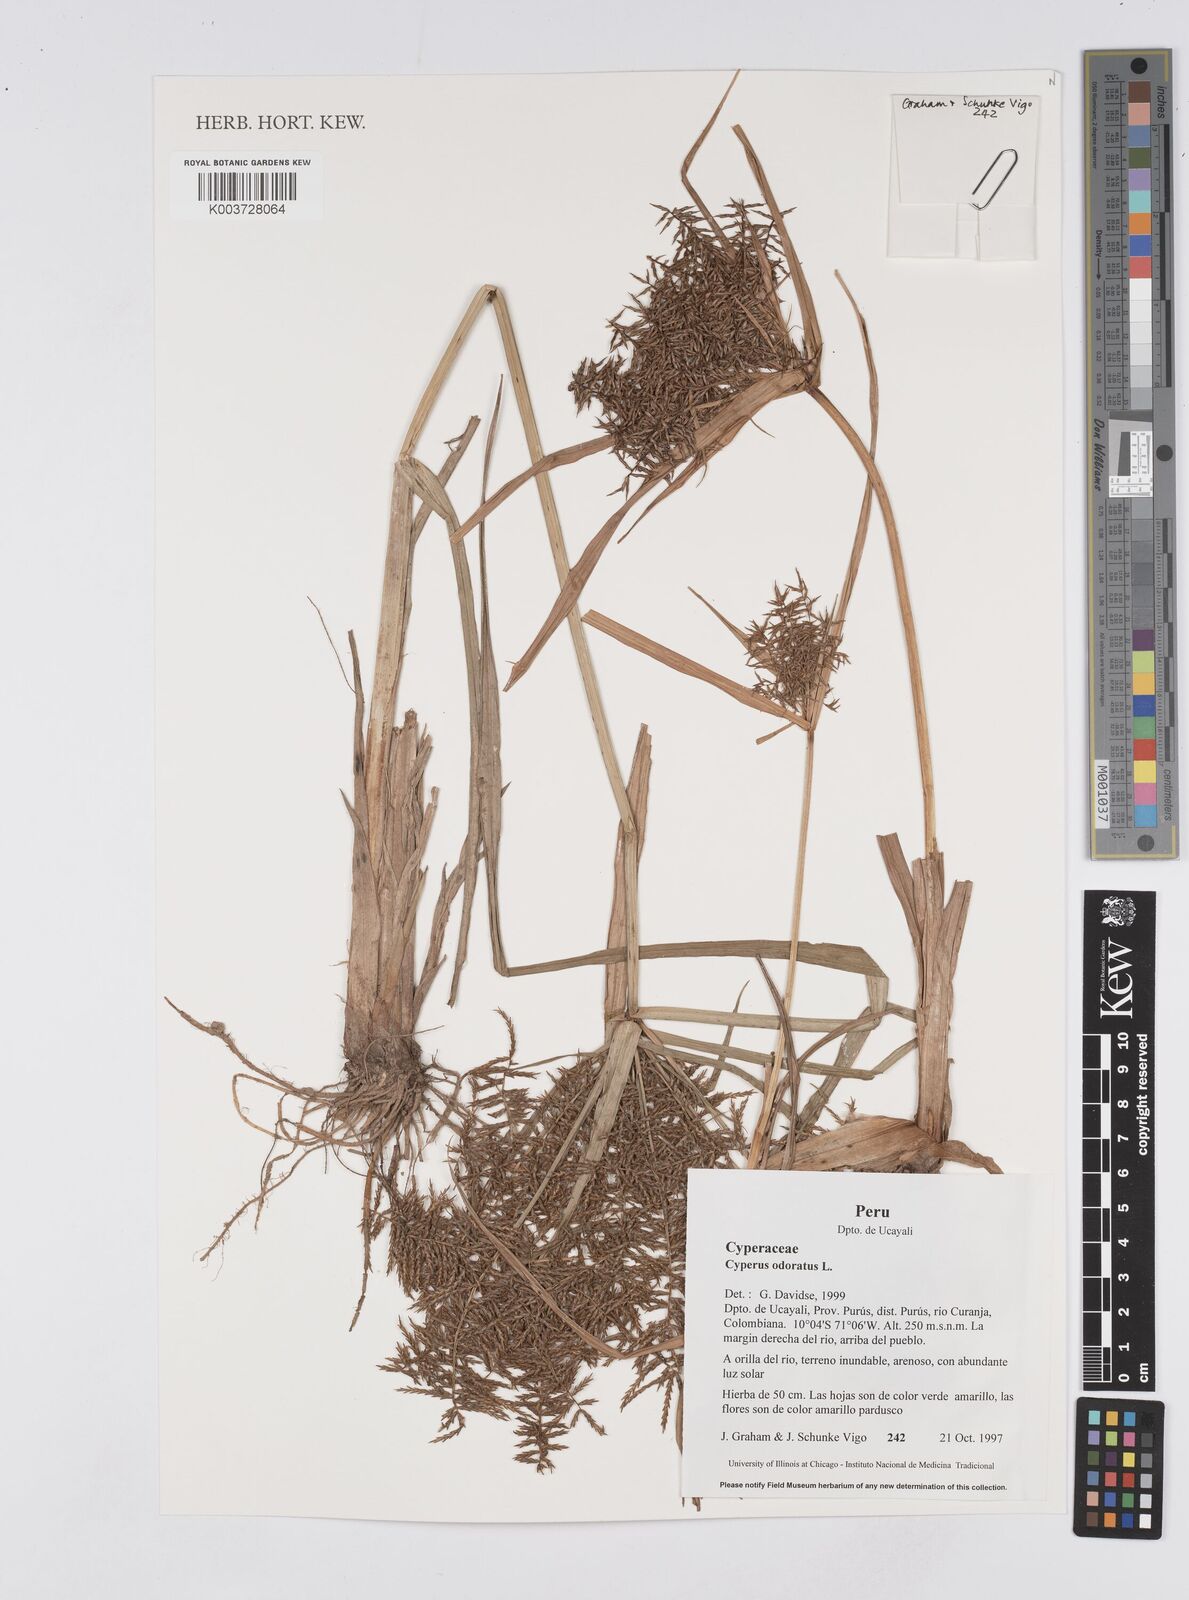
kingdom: Plantae
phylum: Tracheophyta
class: Liliopsida
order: Poales
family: Cyperaceae
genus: Cyperus
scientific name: Cyperus odoratus
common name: Fragrant flatsedge
